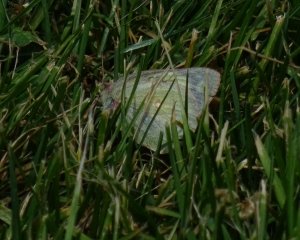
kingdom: Animalia
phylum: Arthropoda
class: Insecta
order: Lepidoptera
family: Pieridae
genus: Colias
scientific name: Colias philodice
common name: Clouded Sulphur
